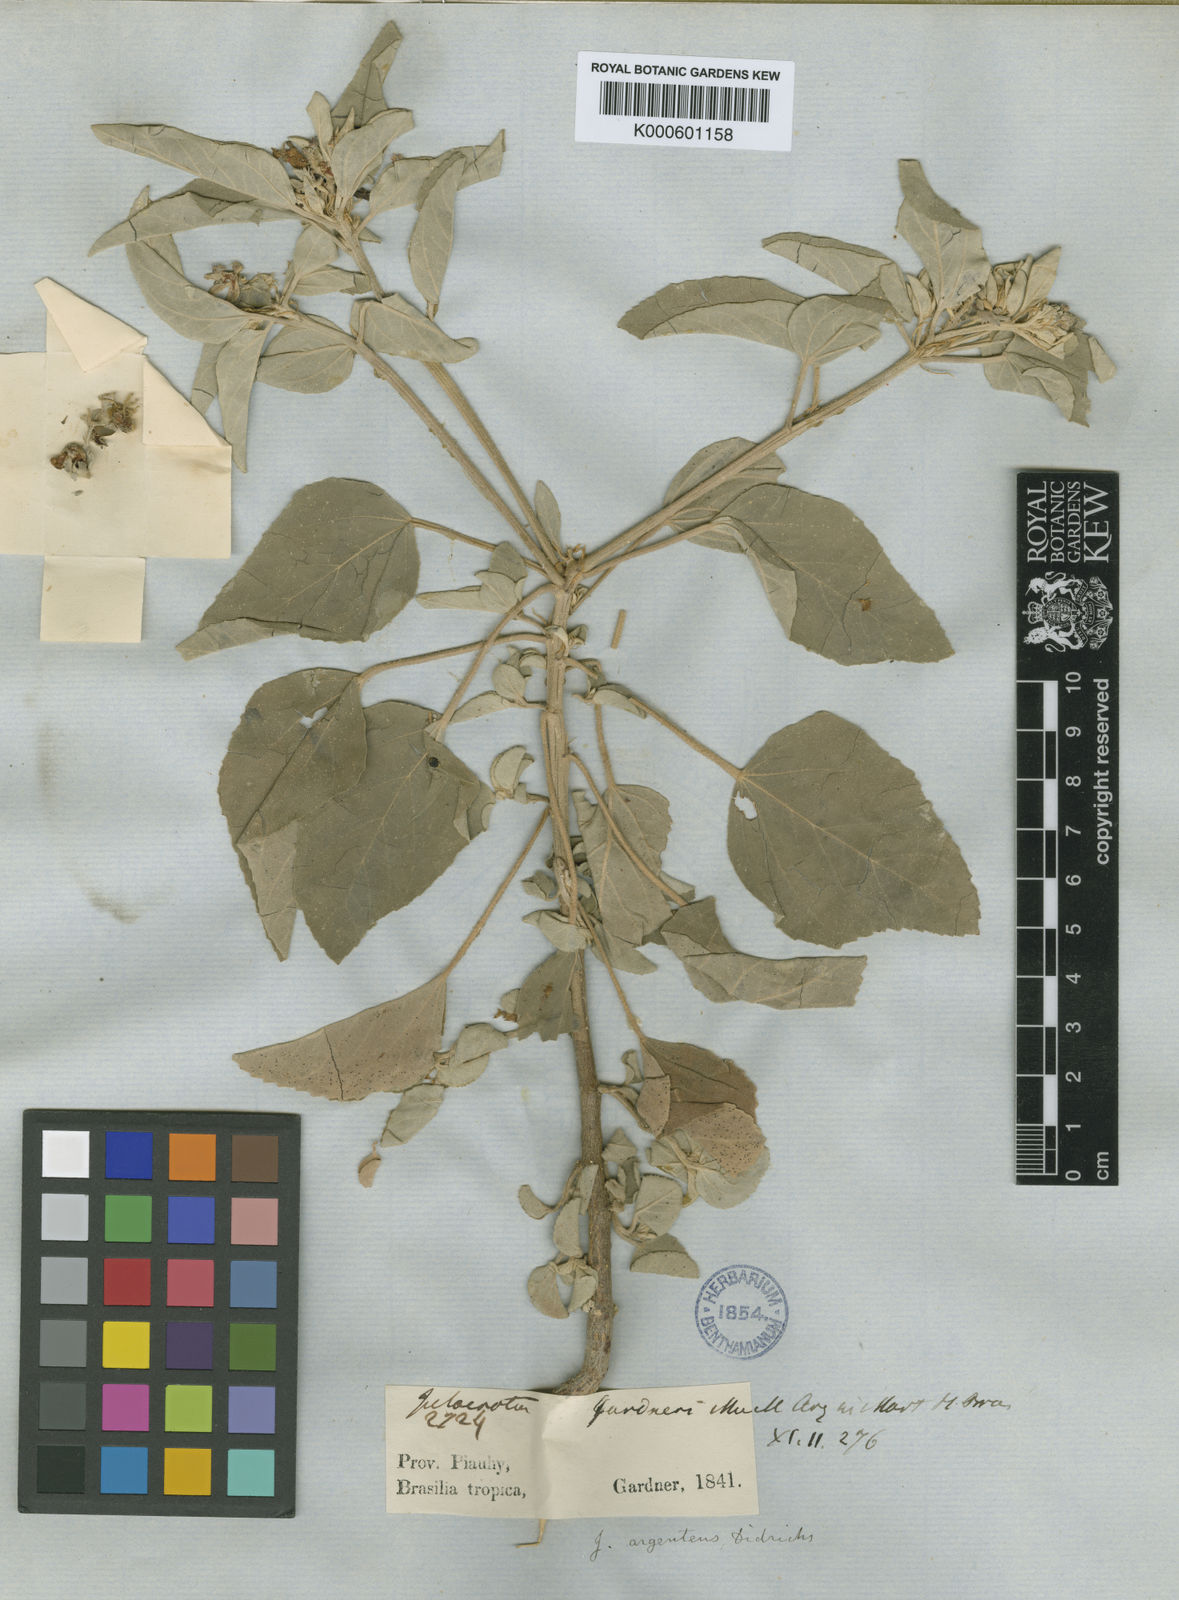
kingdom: Plantae
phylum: Tracheophyta
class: Magnoliopsida
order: Malpighiales
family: Euphorbiaceae
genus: Croton
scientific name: Croton
